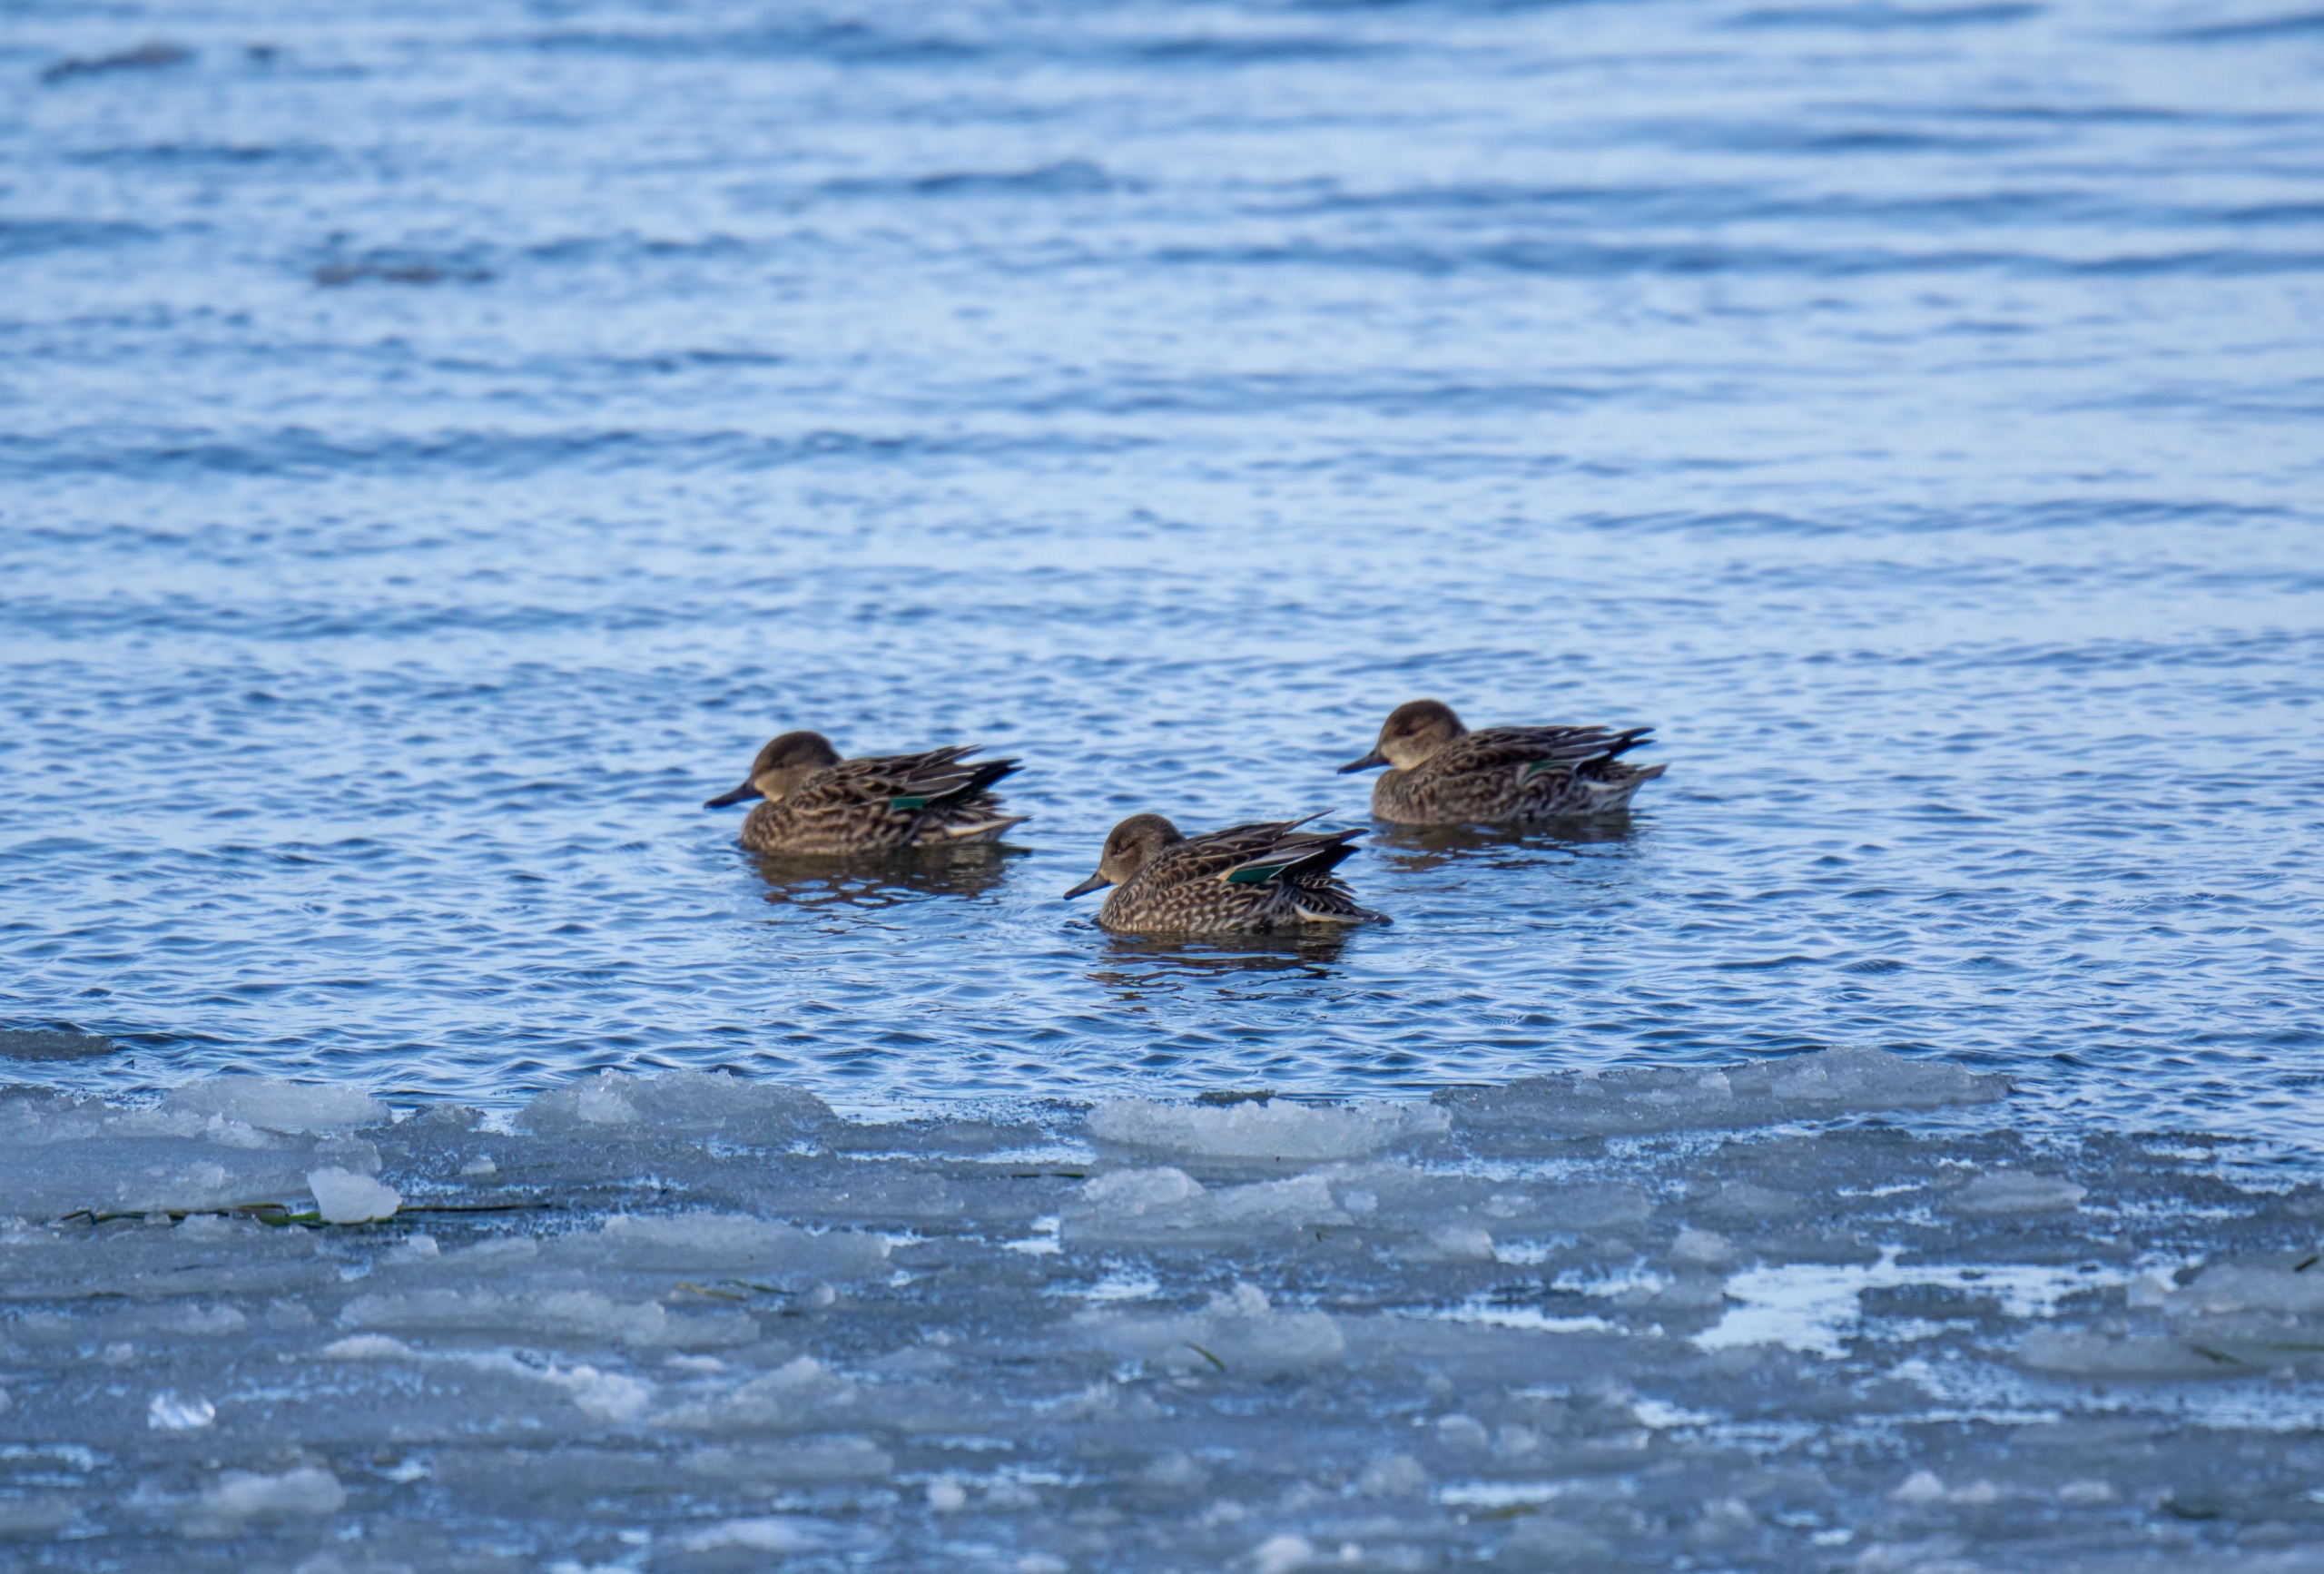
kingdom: Animalia
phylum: Chordata
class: Aves
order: Anseriformes
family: Anatidae
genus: Anas
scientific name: Anas crecca
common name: Krikand
